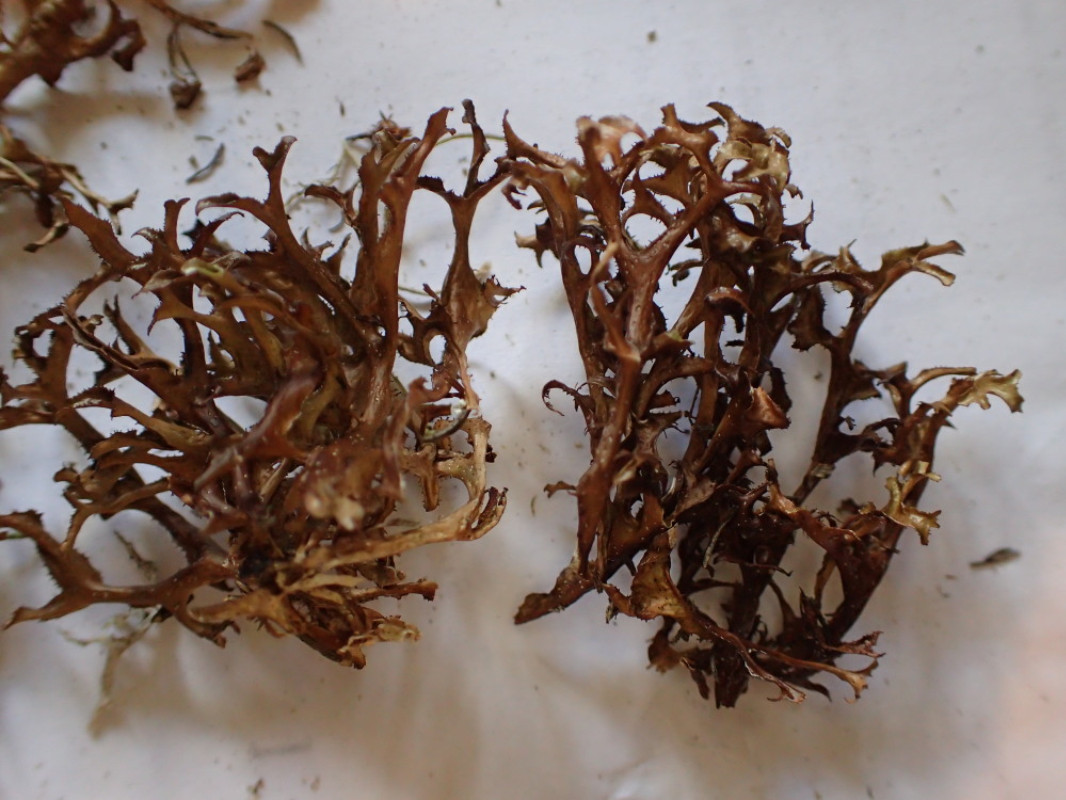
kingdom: Fungi
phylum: Ascomycota
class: Lecanoromycetes
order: Lecanorales
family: Parmeliaceae
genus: Cetraria
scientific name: Cetraria islandica
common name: islandsk kruslav
